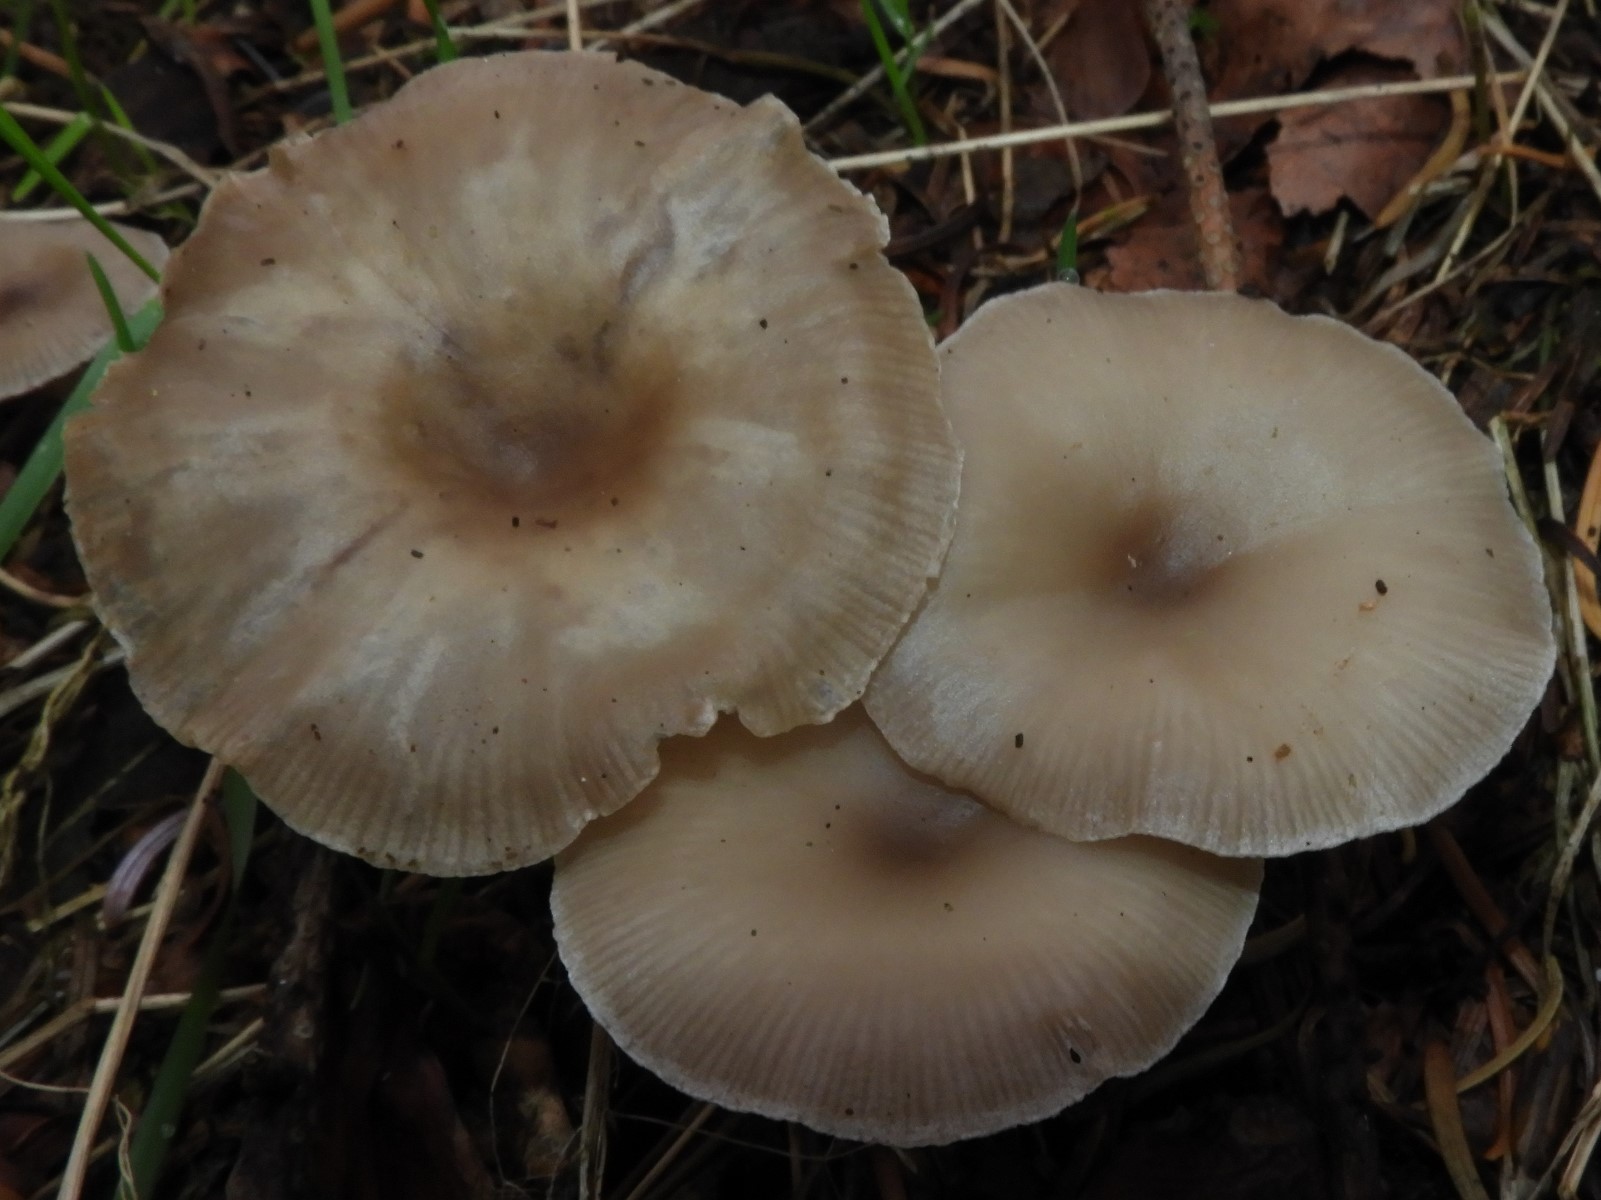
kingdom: Fungi
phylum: Basidiomycota
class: Agaricomycetes
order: Agaricales
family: Tricholomataceae
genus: Clitocybe
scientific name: Clitocybe metachroa
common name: grå tragthat
